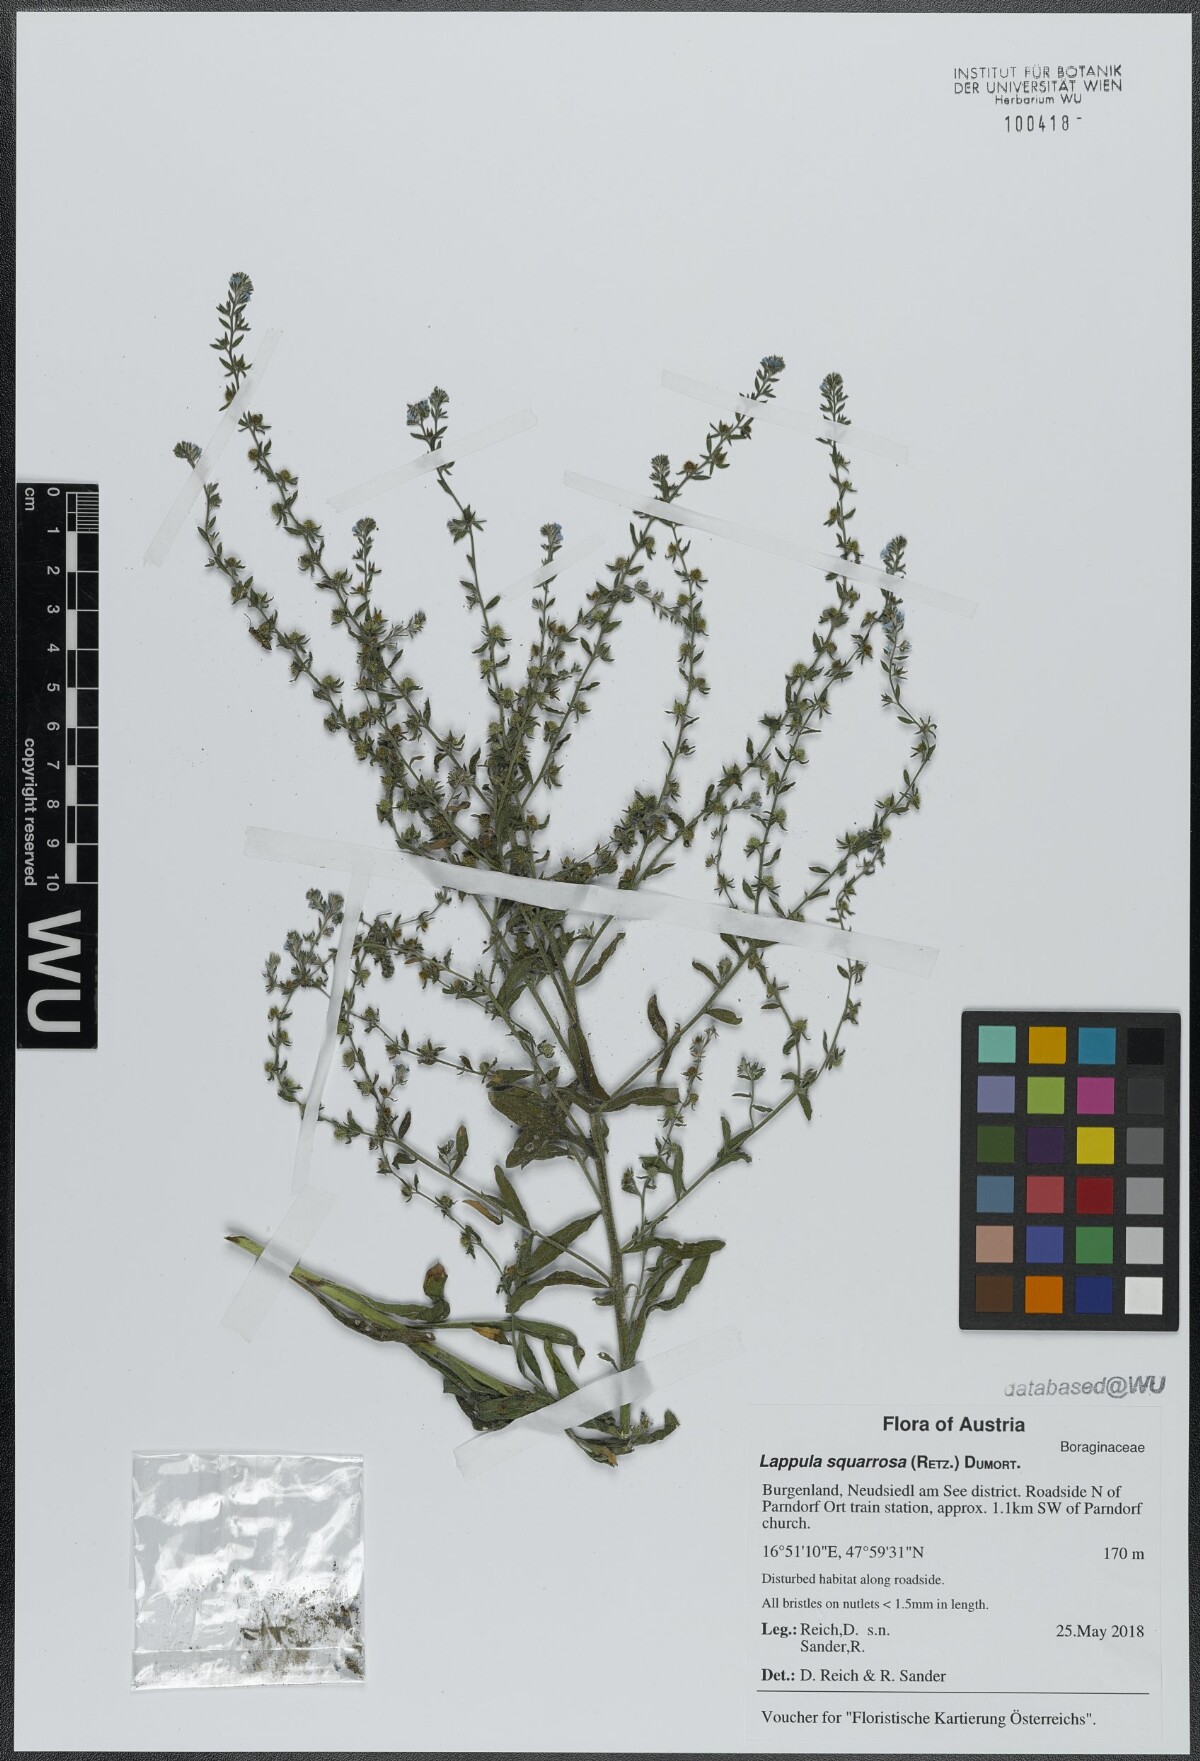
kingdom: Plantae
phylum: Tracheophyta
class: Magnoliopsida
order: Boraginales
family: Boraginaceae
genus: Lappula
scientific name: Lappula squarrosa
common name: European stickseed
